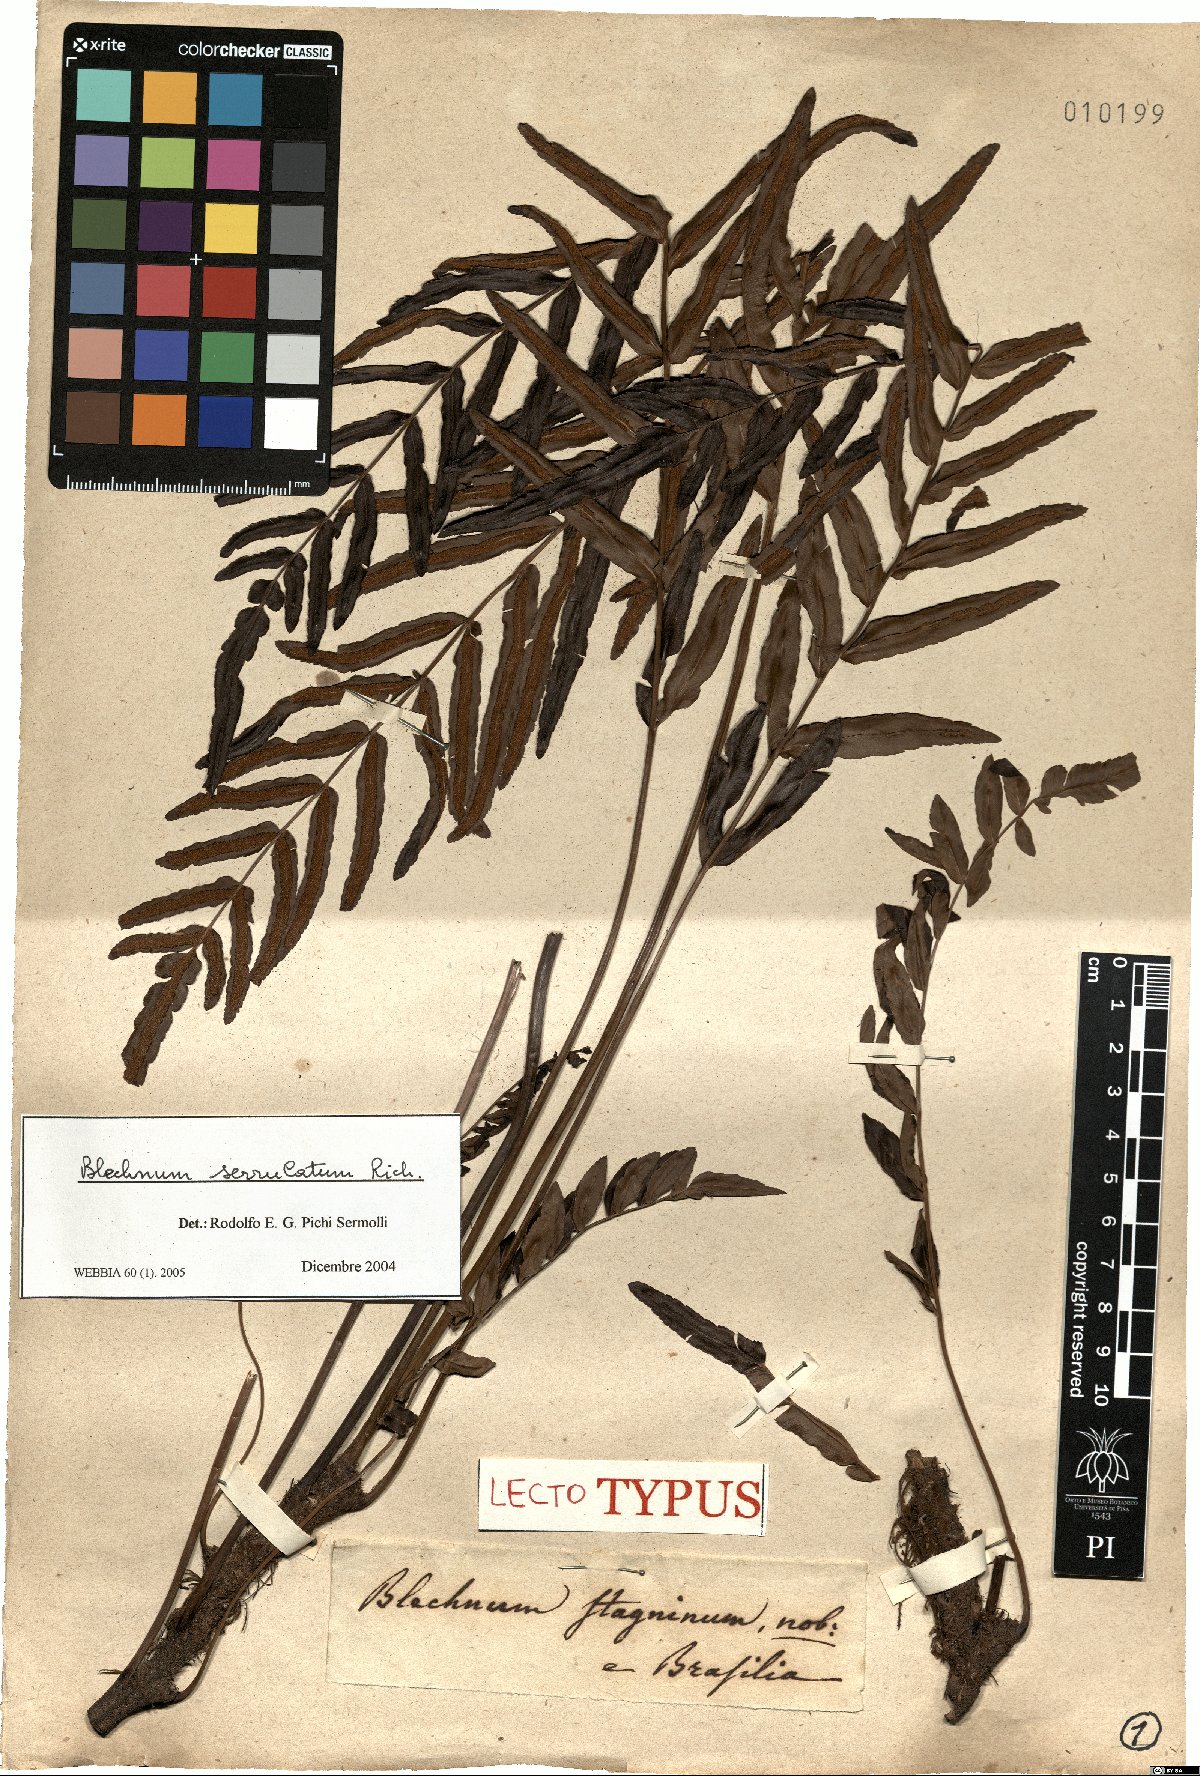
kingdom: Plantae
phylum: Tracheophyta
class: Polypodiopsida
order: Polypodiales
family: Blechnaceae
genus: Telmatoblechnum
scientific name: Telmatoblechnum serrulatum
